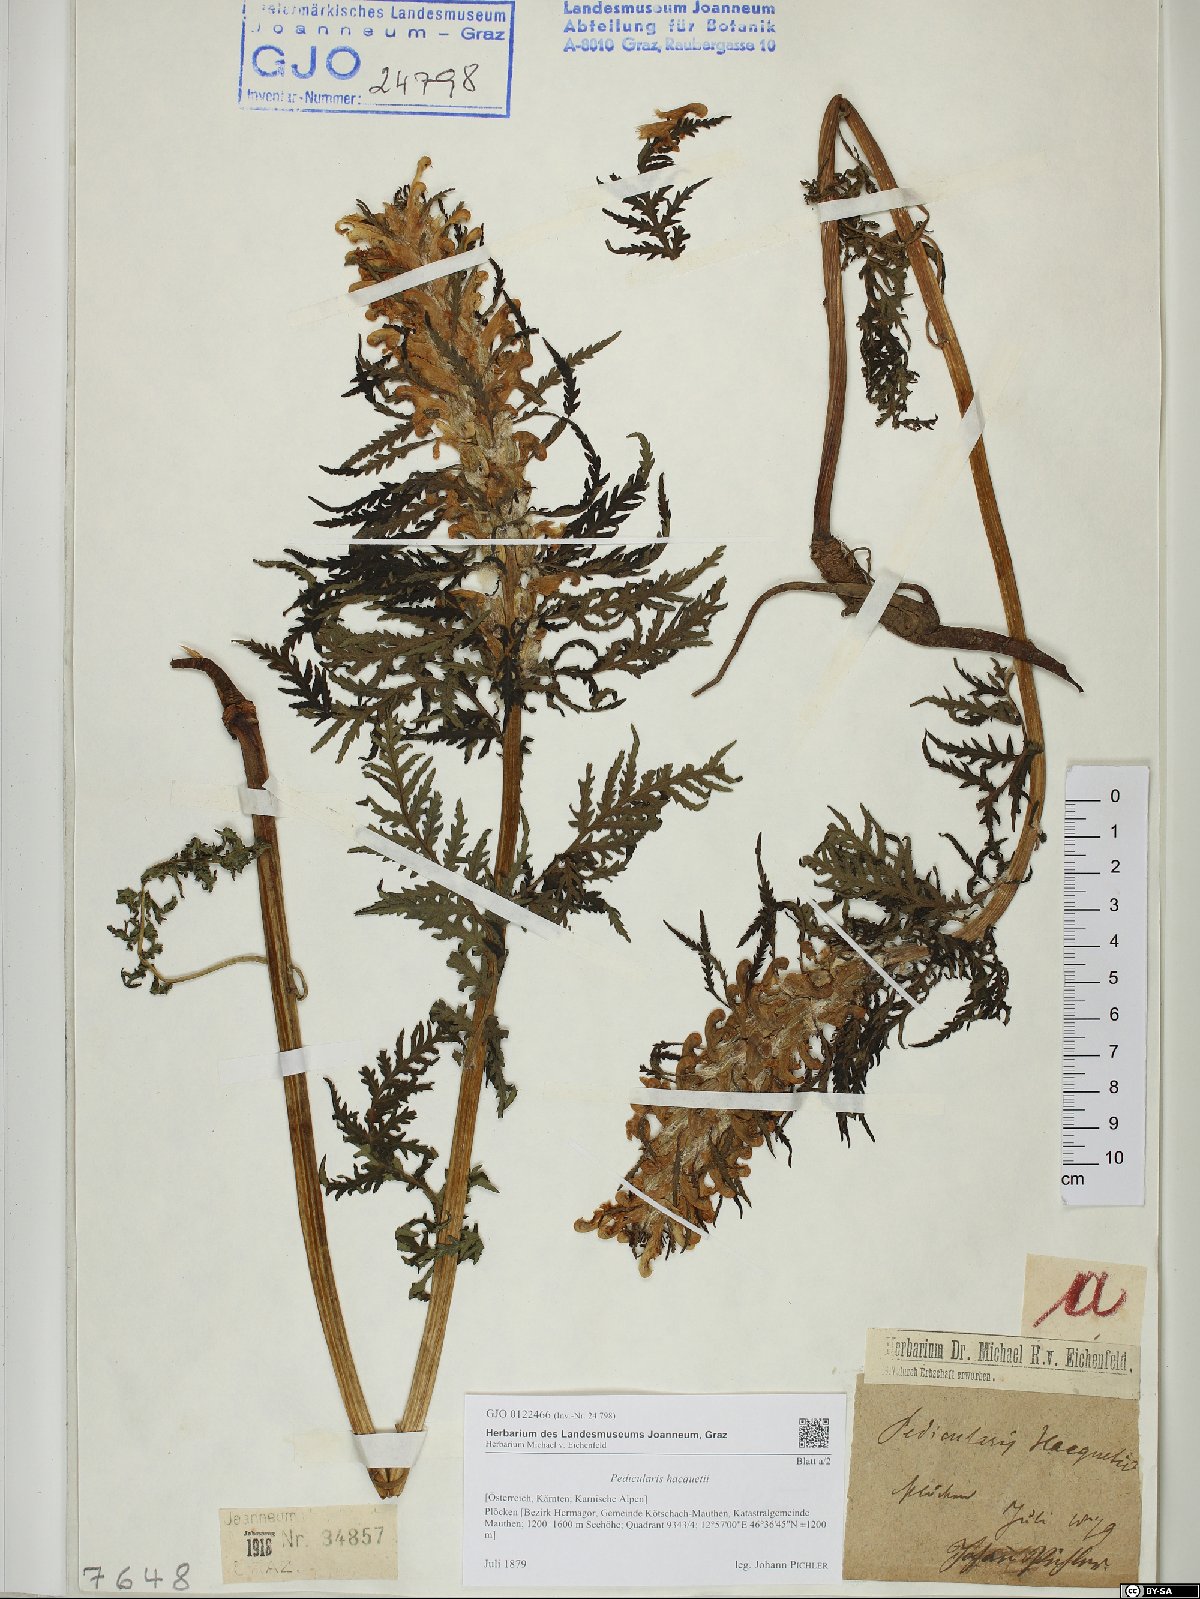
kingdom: Plantae
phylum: Tracheophyta
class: Magnoliopsida
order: Lamiales
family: Orobanchaceae
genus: Pedicularis
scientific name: Pedicularis hacquetii
